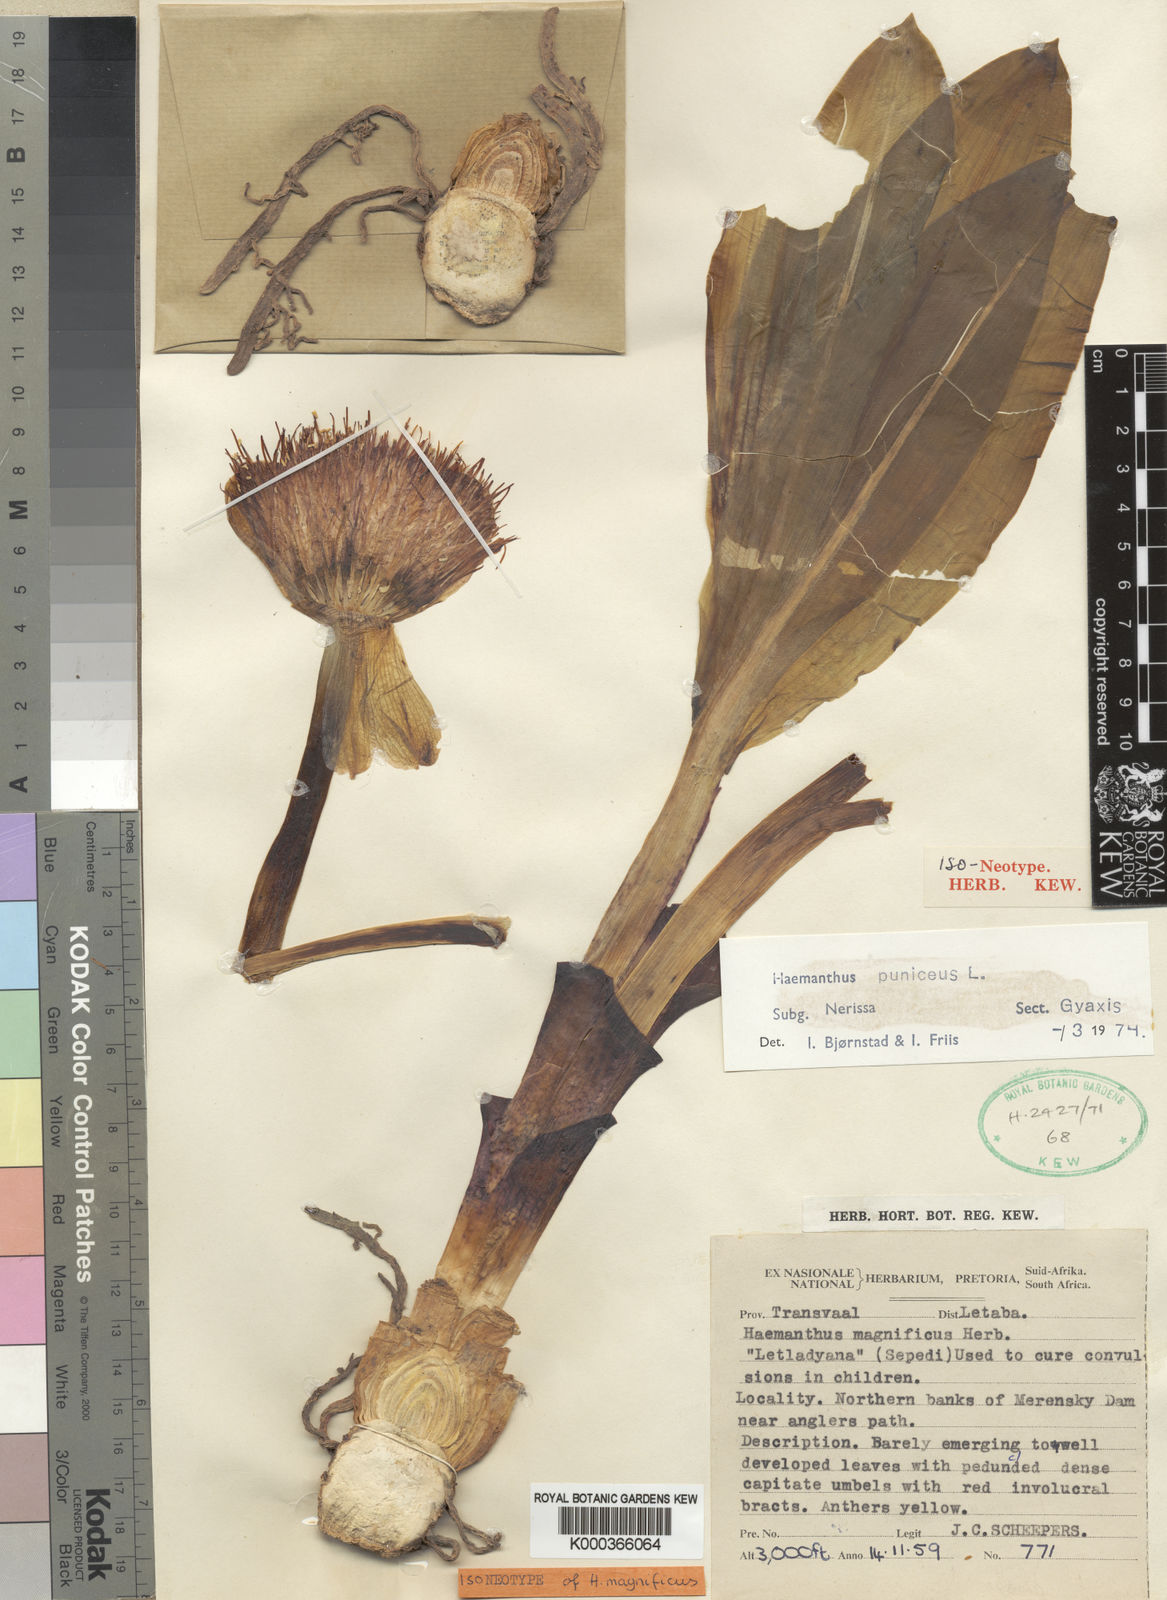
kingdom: Plantae
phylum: Tracheophyta
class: Liliopsida
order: Asparagales
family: Amaryllidaceae
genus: Scadoxus
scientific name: Scadoxus puniceus
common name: Royal-paintbrush
